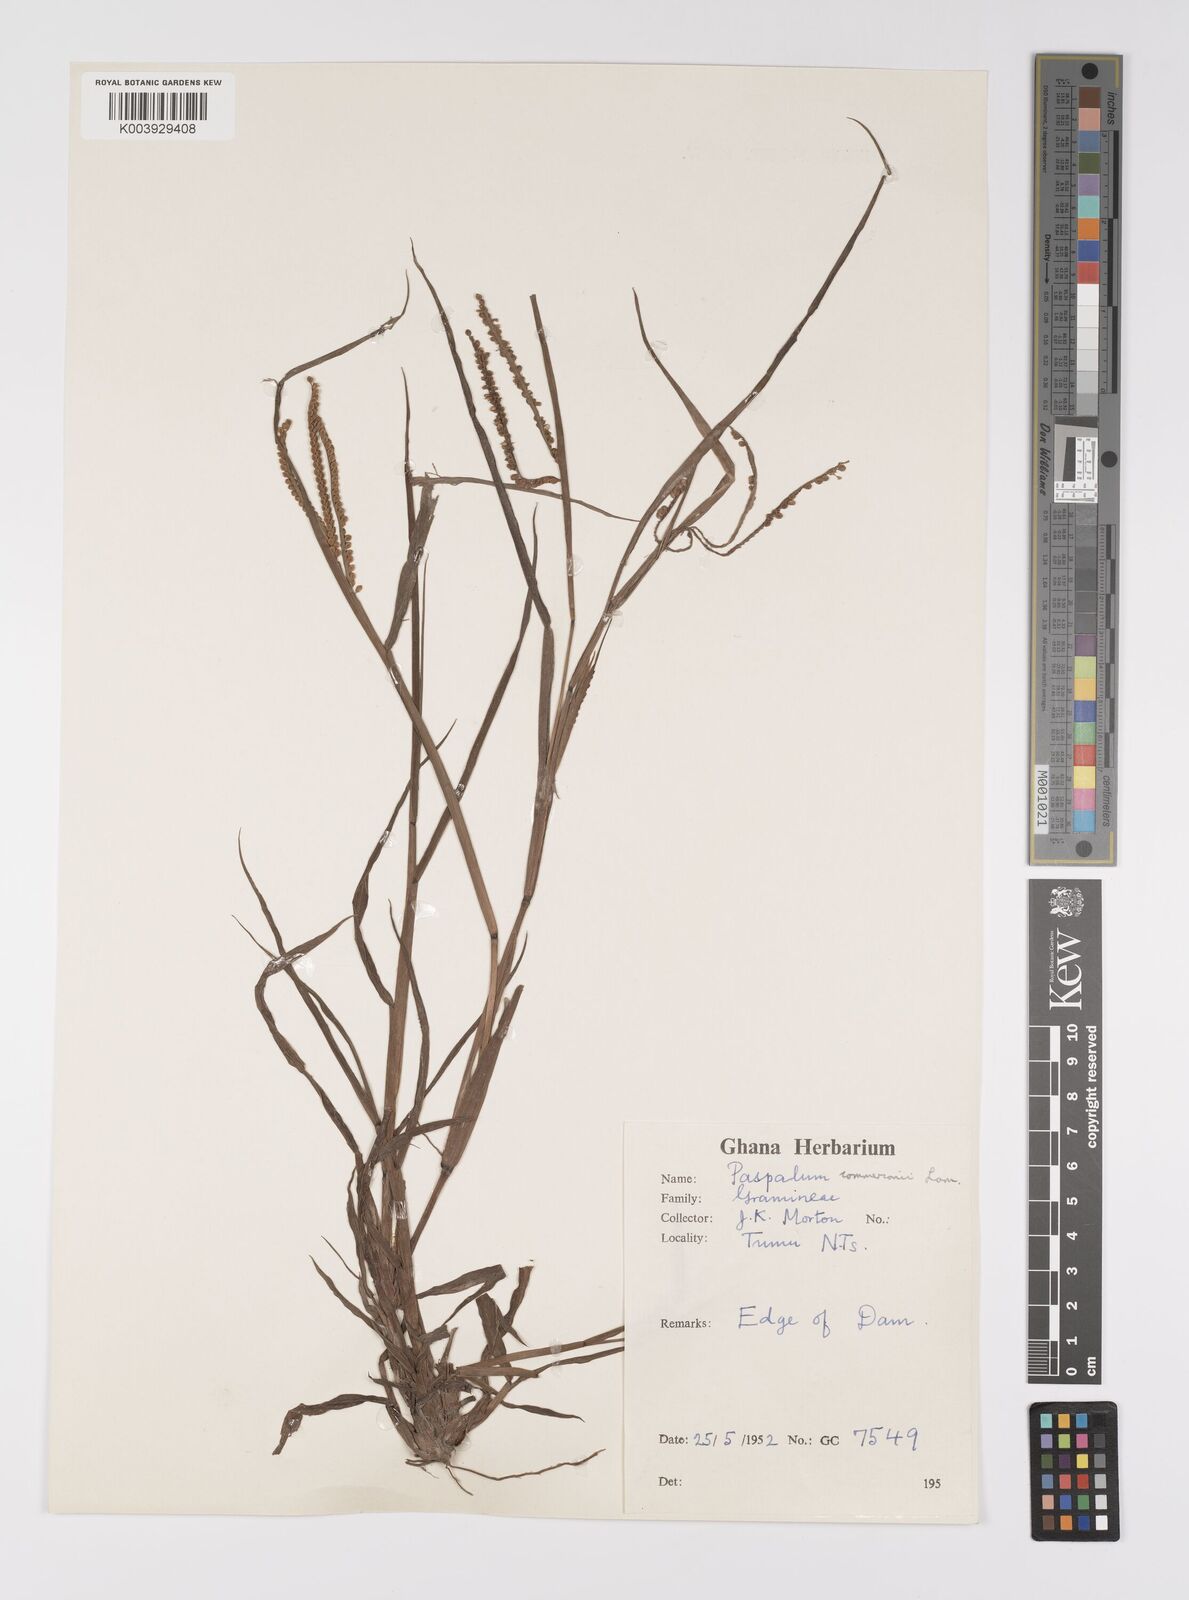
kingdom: Plantae
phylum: Tracheophyta
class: Liliopsida
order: Poales
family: Poaceae
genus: Paspalum
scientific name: Paspalum scrobiculatum
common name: Kodo millet
